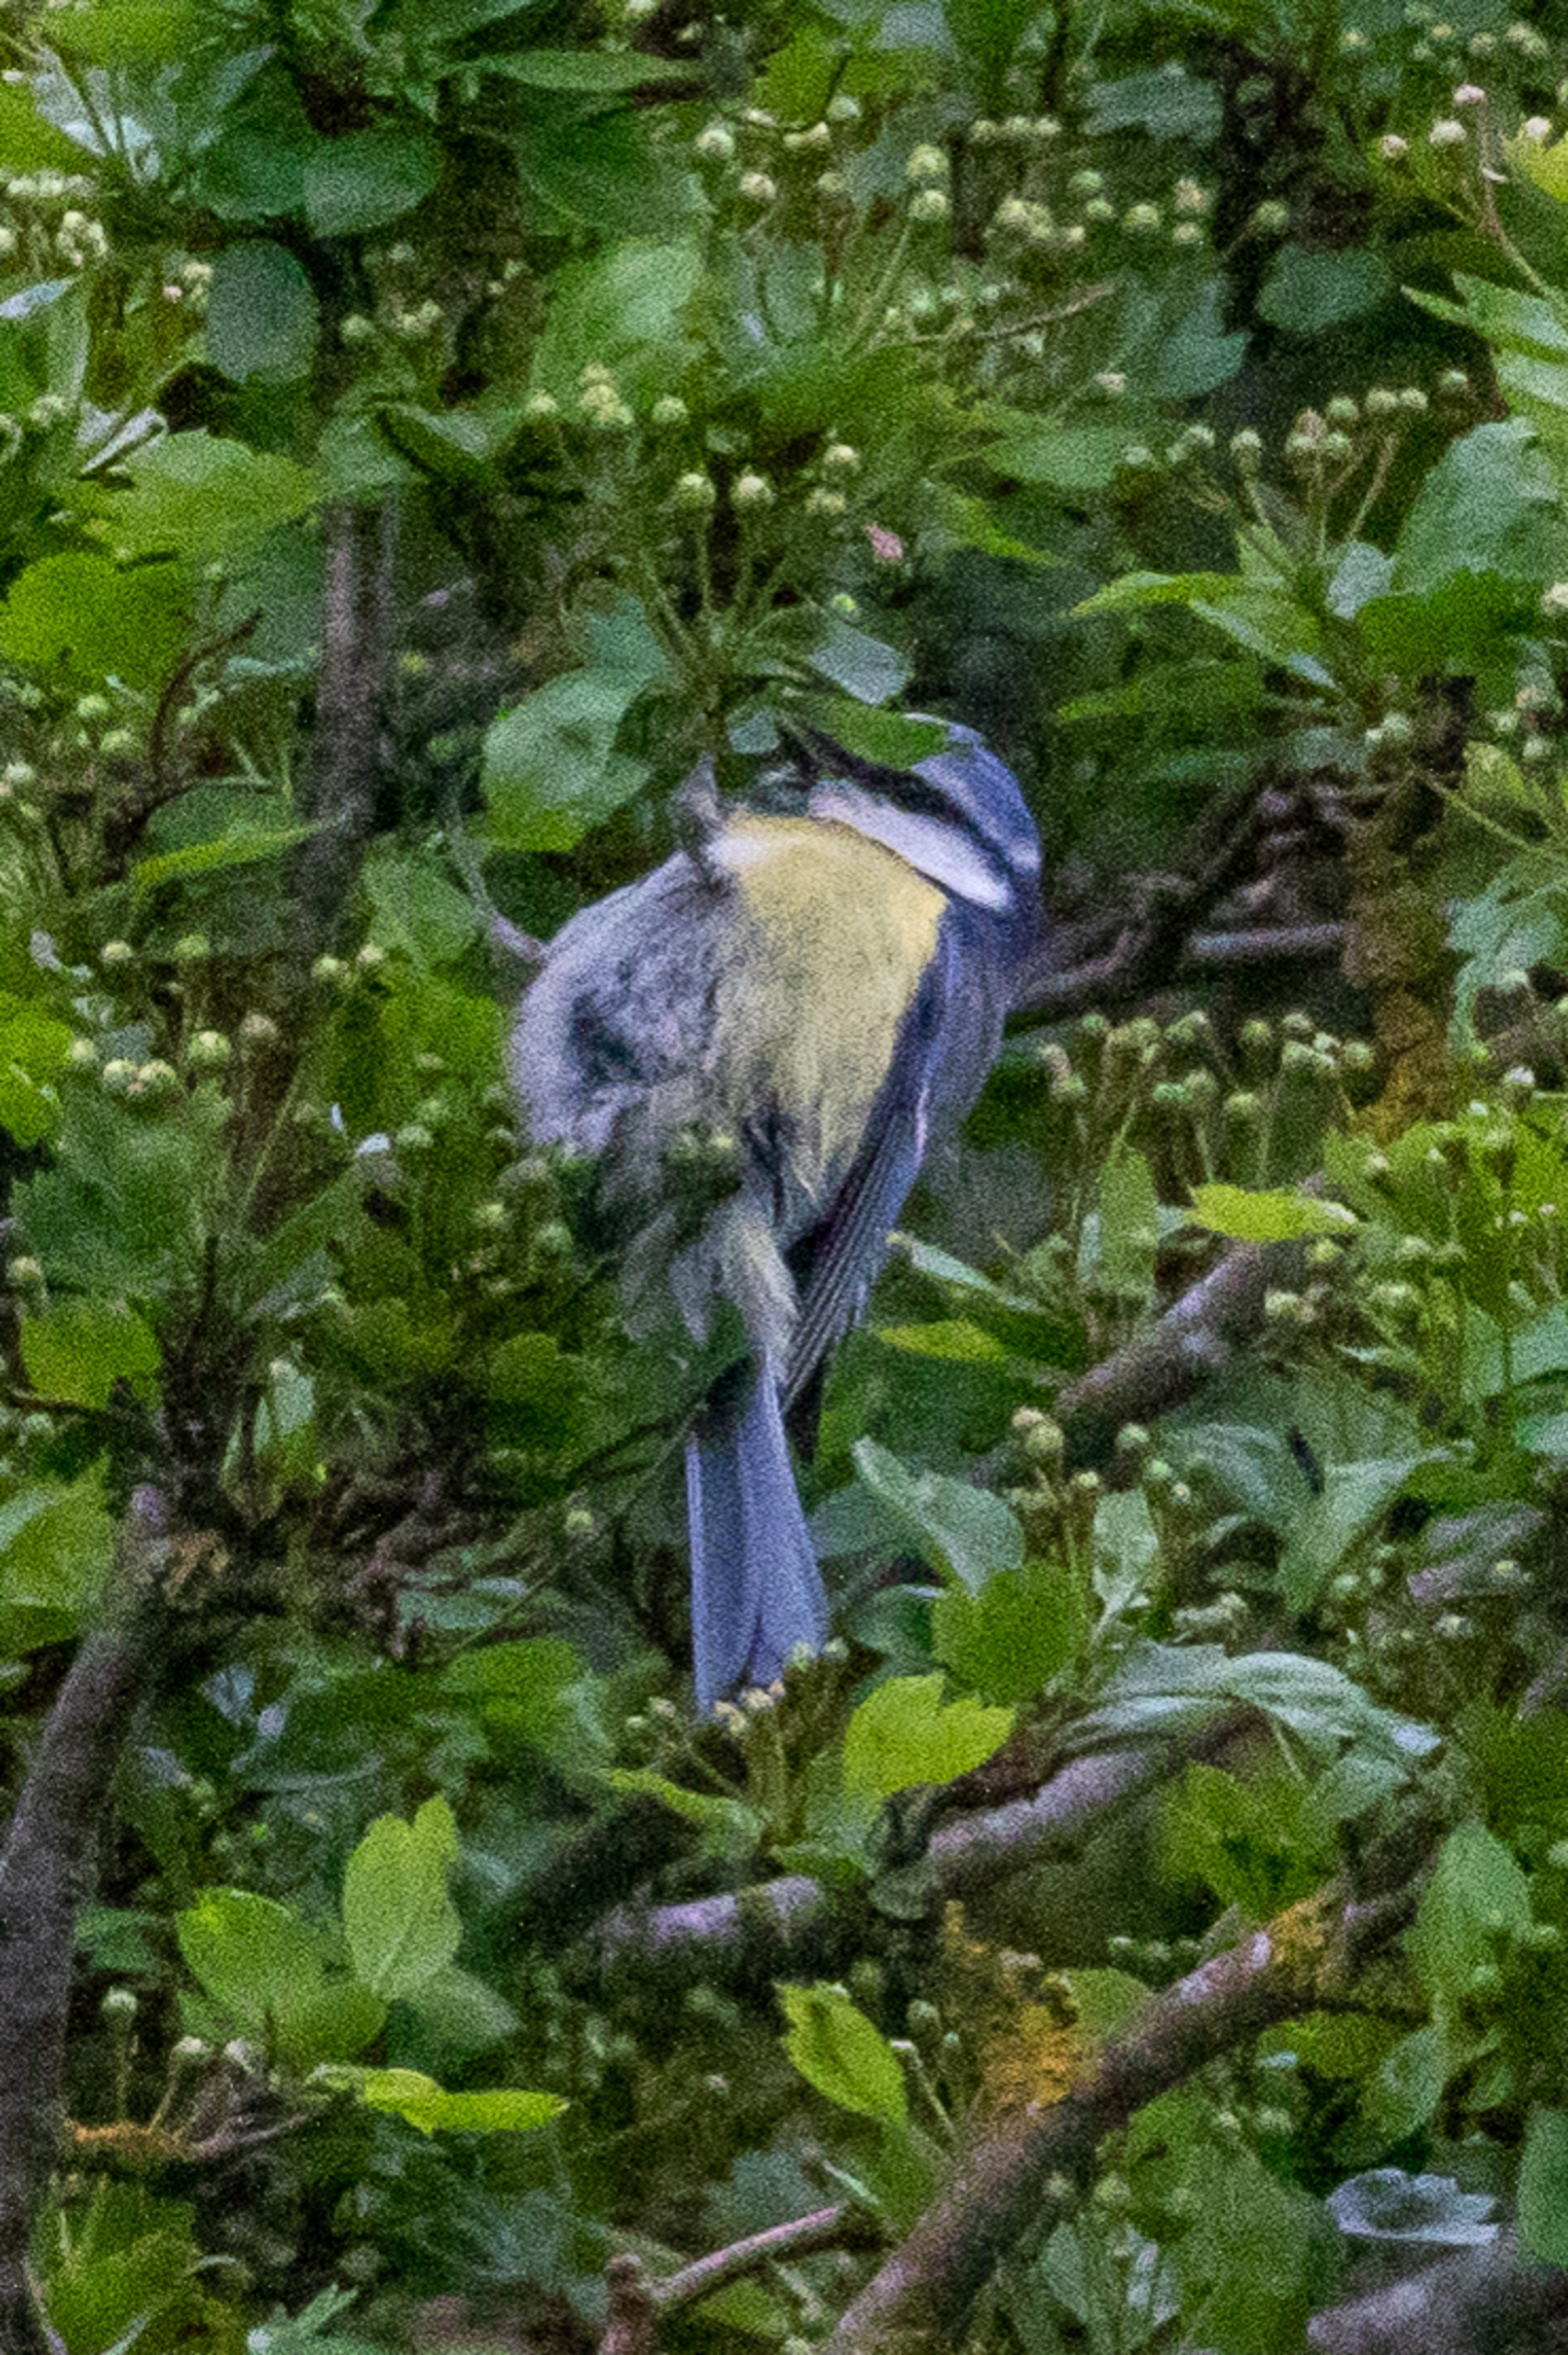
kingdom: Animalia
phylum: Chordata
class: Aves
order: Passeriformes
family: Paridae
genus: Cyanistes
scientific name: Cyanistes caeruleus
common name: Blåmejse
